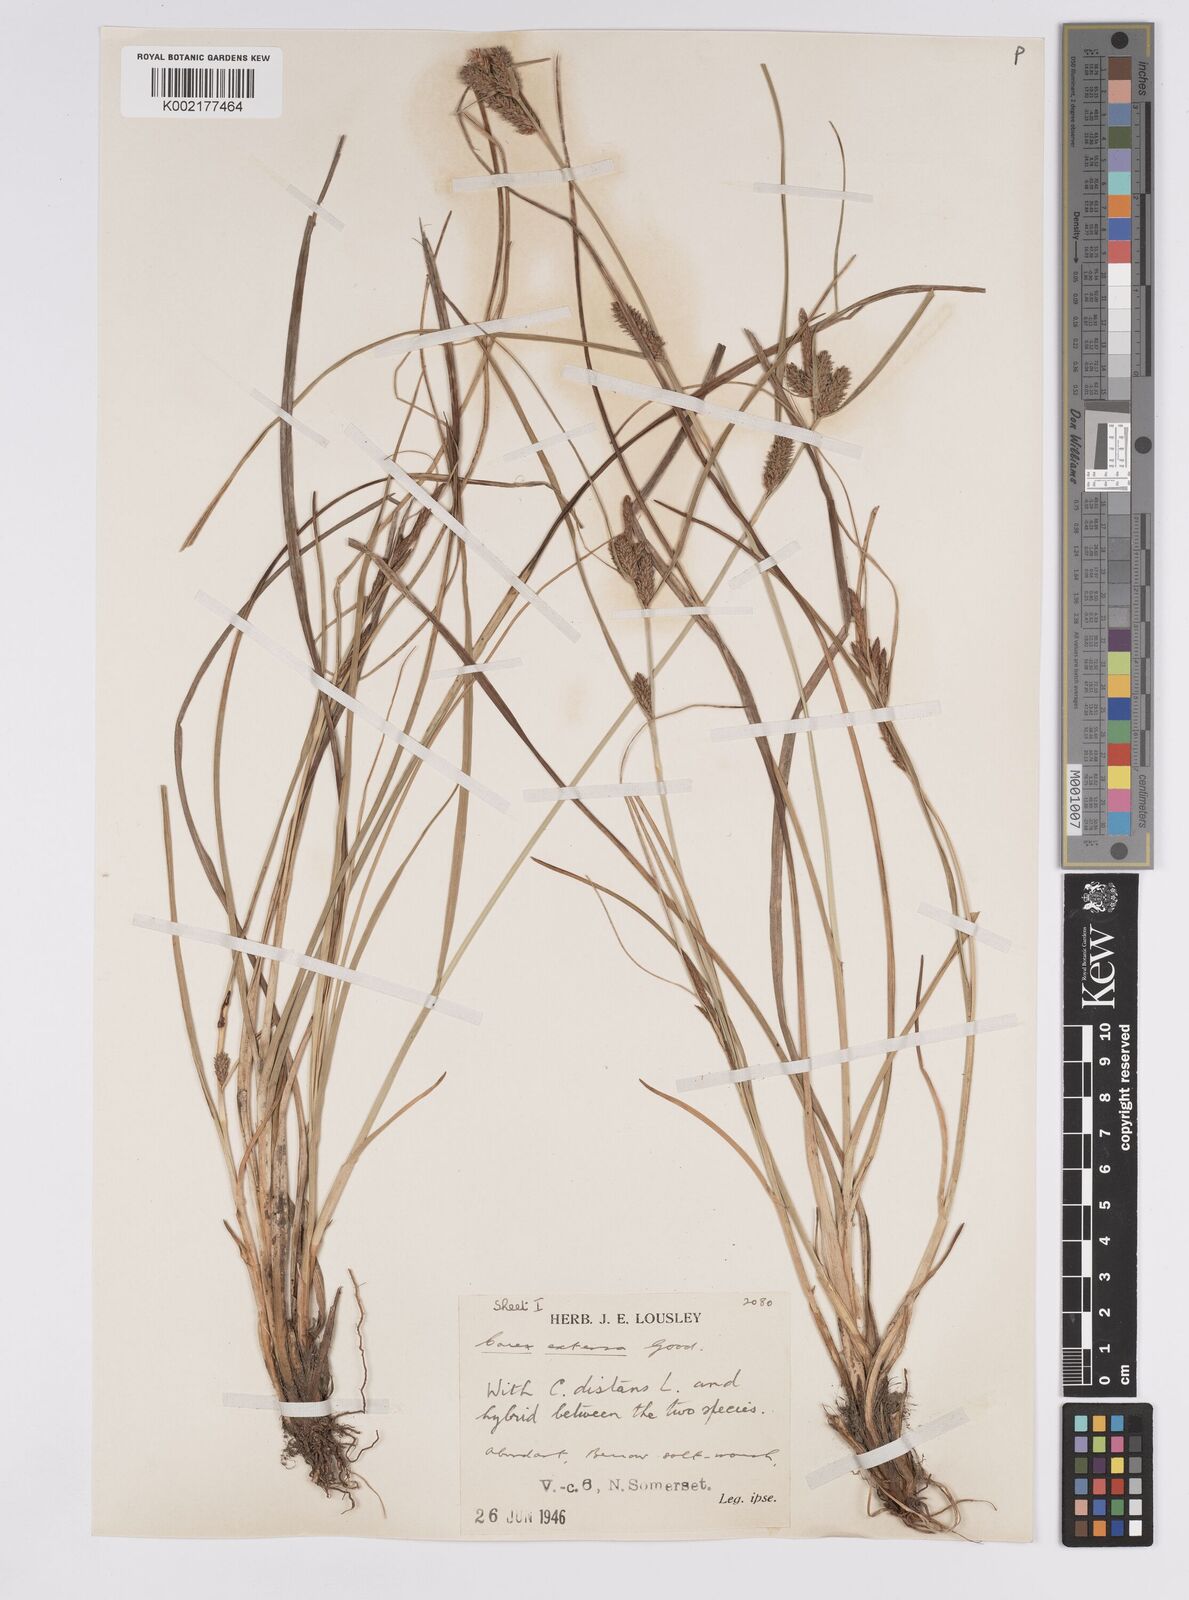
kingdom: Plantae
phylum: Tracheophyta
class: Liliopsida
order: Poales
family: Cyperaceae
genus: Carex
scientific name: Carex extensa
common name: Long-bracted sedge
